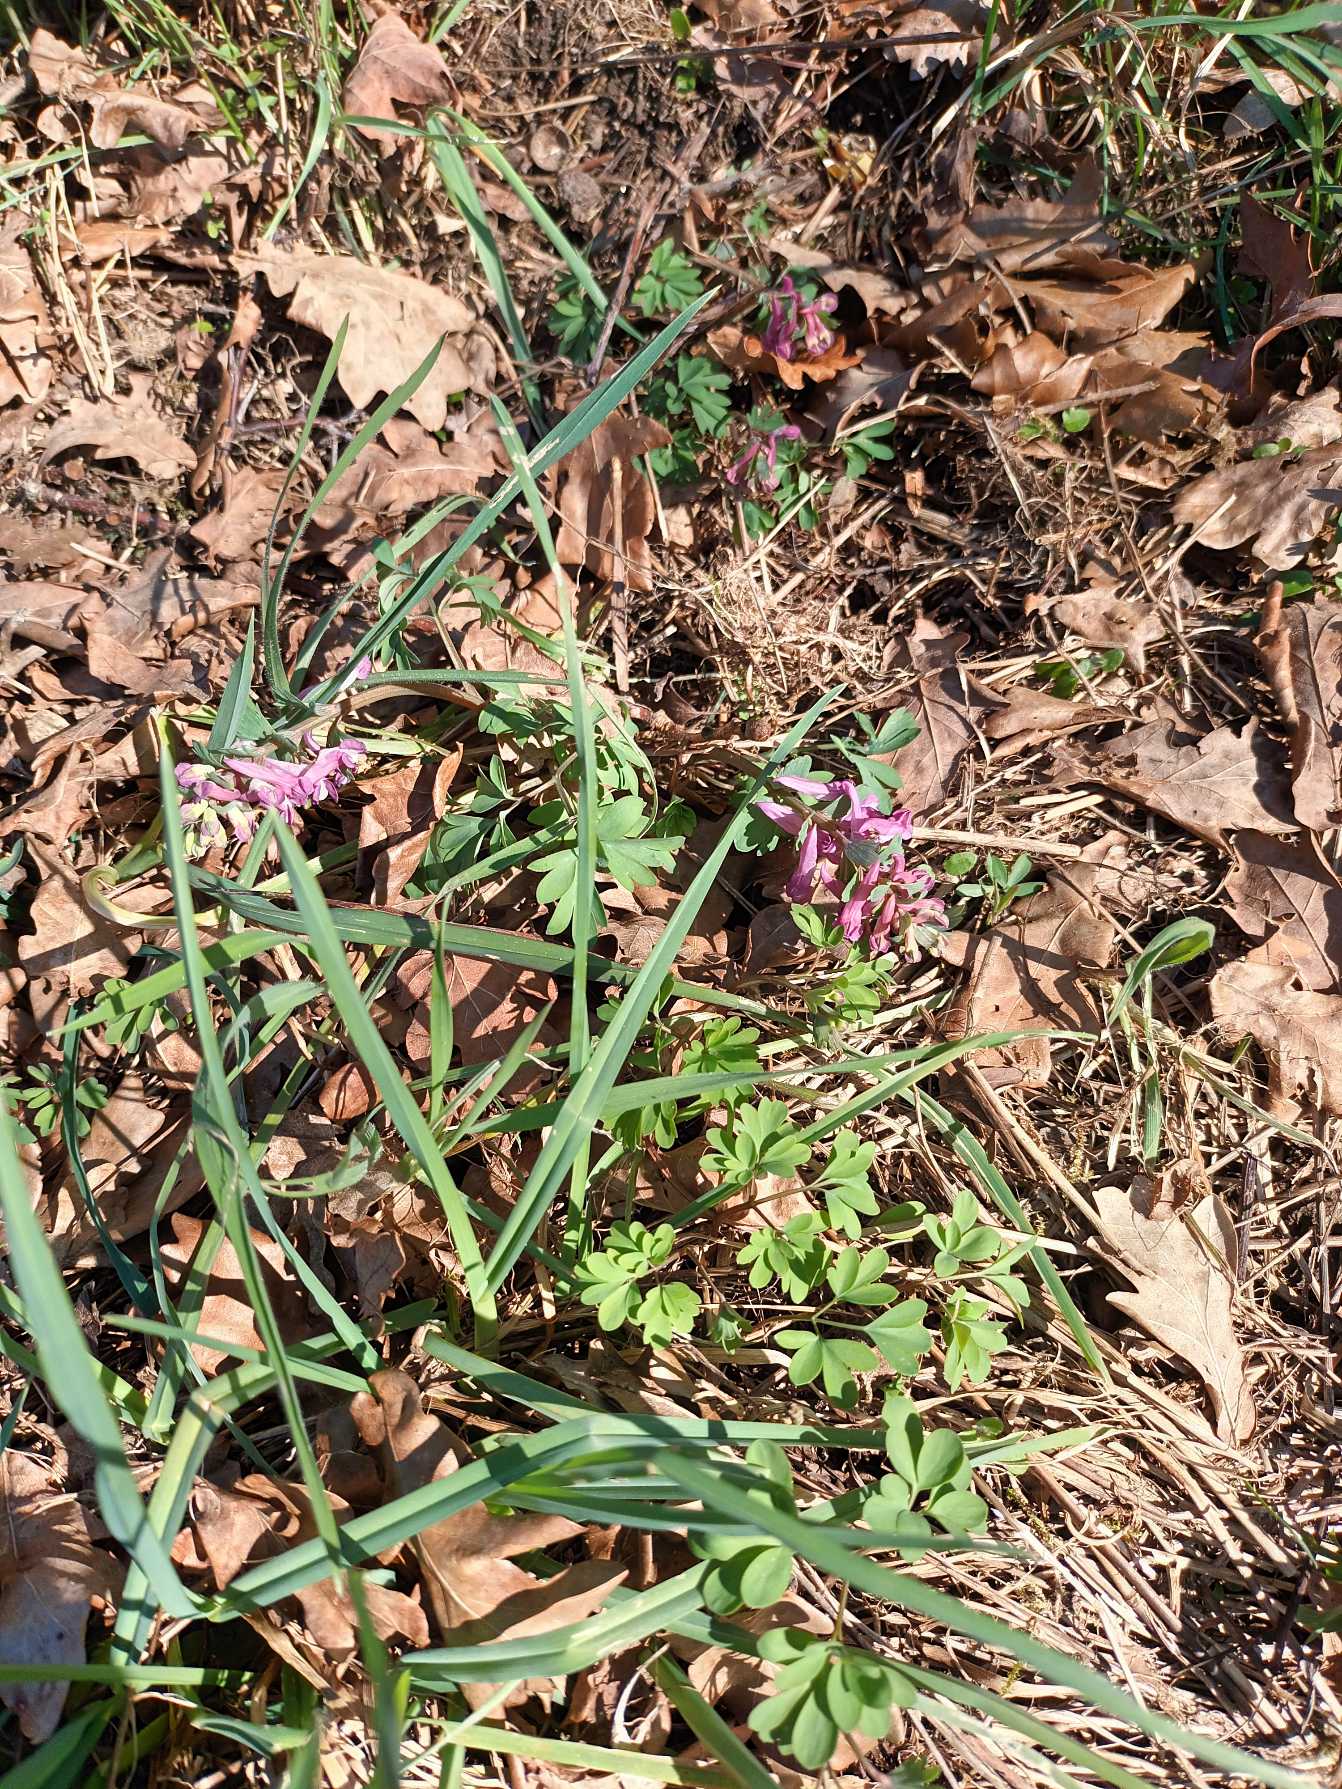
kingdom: Plantae
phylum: Tracheophyta
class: Magnoliopsida
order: Ranunculales
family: Papaveraceae
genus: Corydalis
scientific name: Corydalis solida
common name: Langstilket lærkespore
